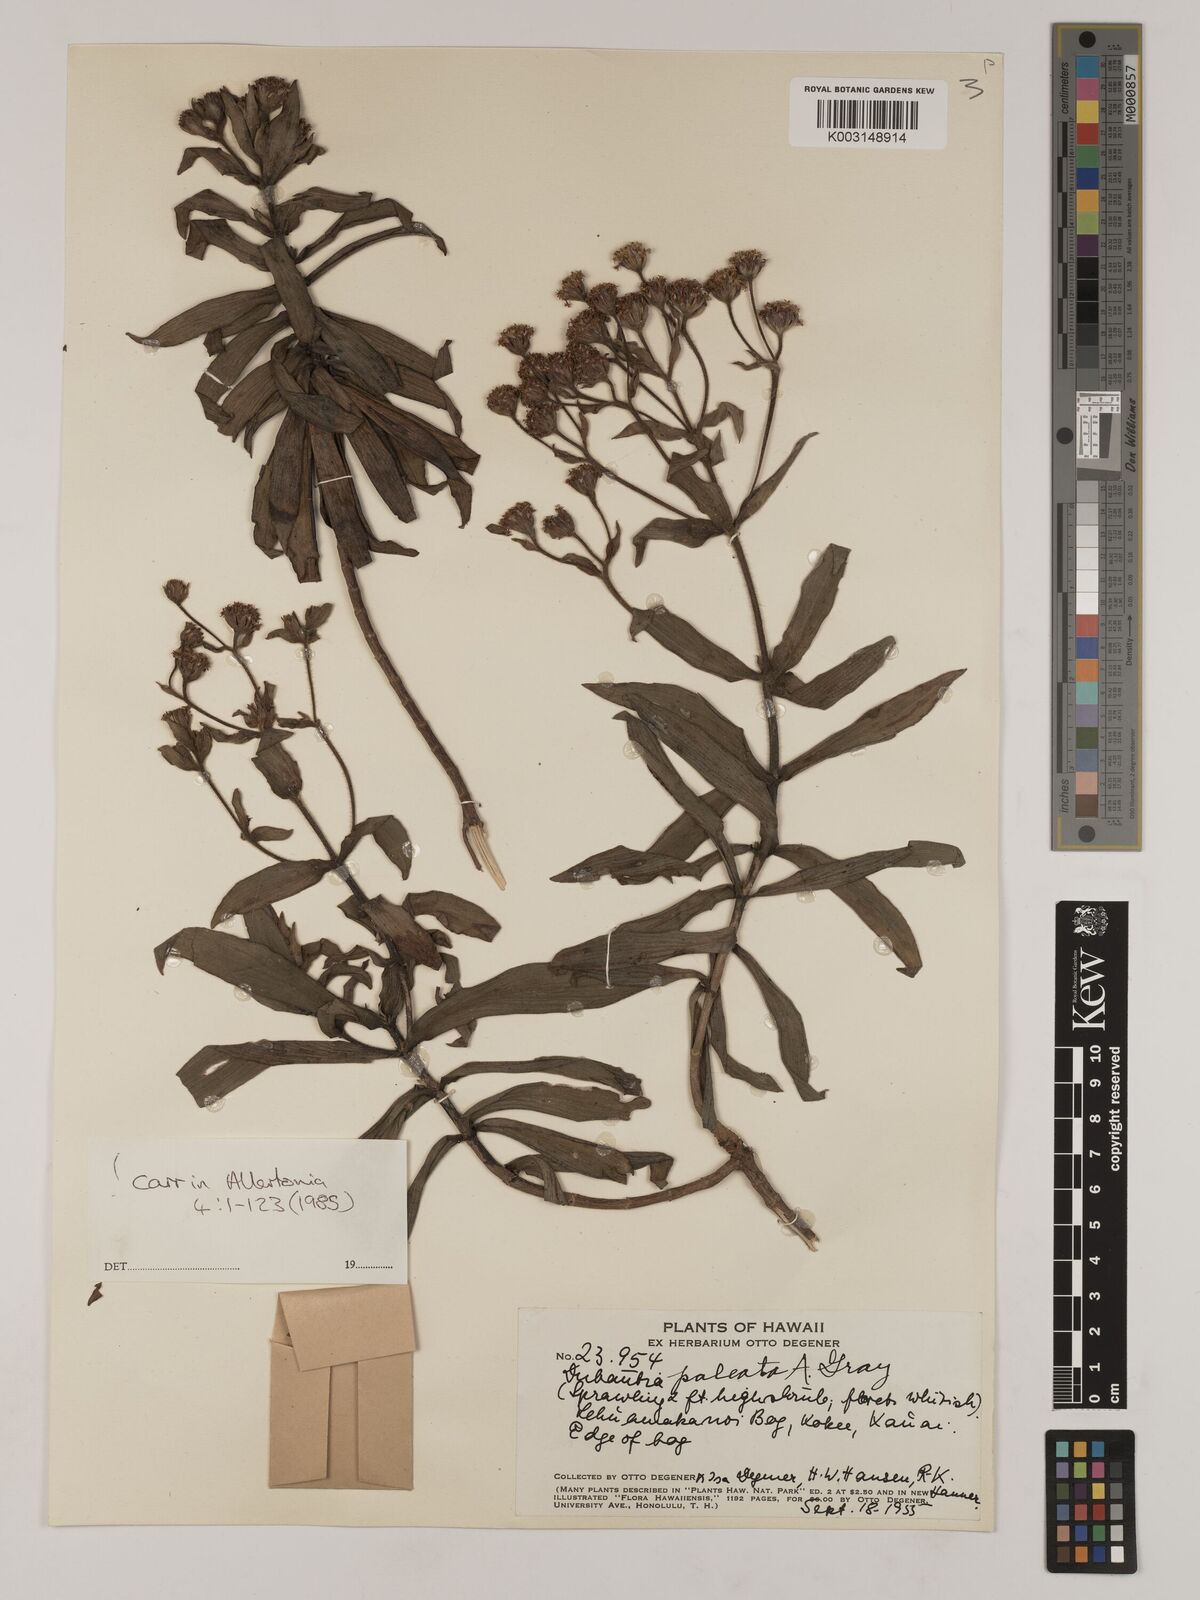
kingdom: Plantae
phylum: Tracheophyta
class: Magnoliopsida
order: Asterales
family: Asteraceae
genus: Dubautia
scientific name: Dubautia paleata
